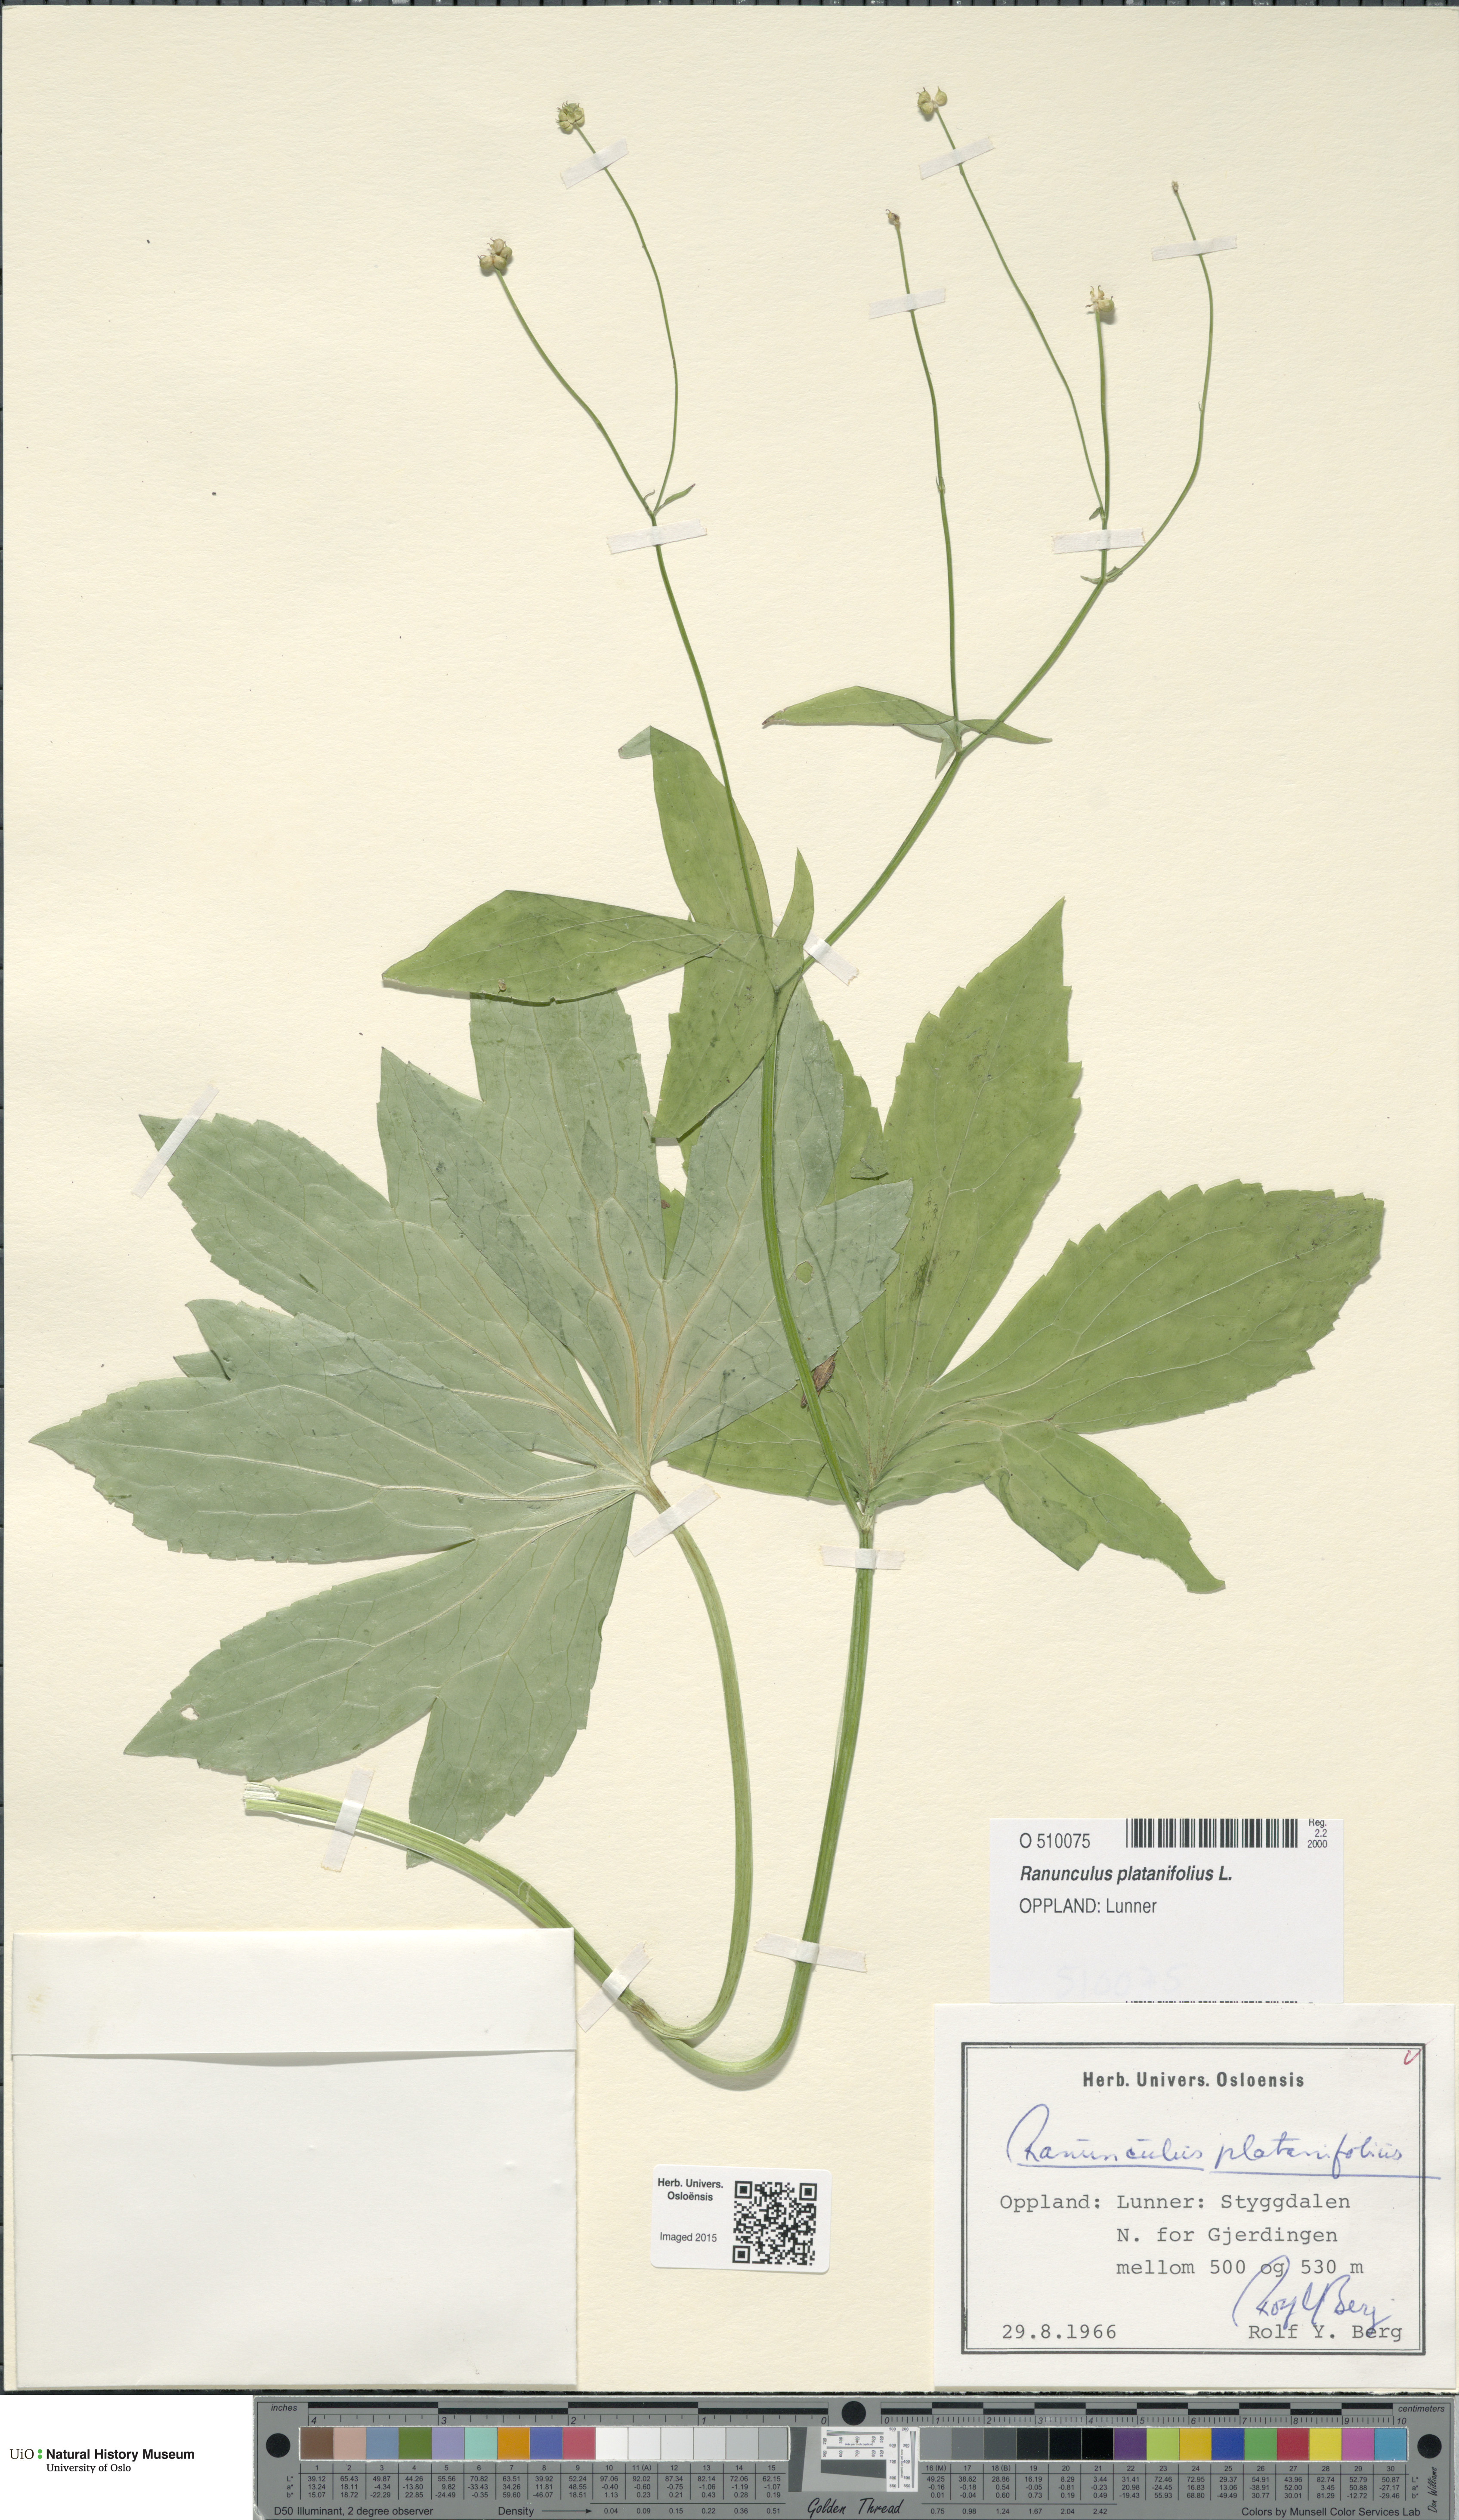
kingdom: Plantae
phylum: Tracheophyta
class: Magnoliopsida
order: Ranunculales
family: Ranunculaceae
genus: Ranunculus
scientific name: Ranunculus platanifolius
